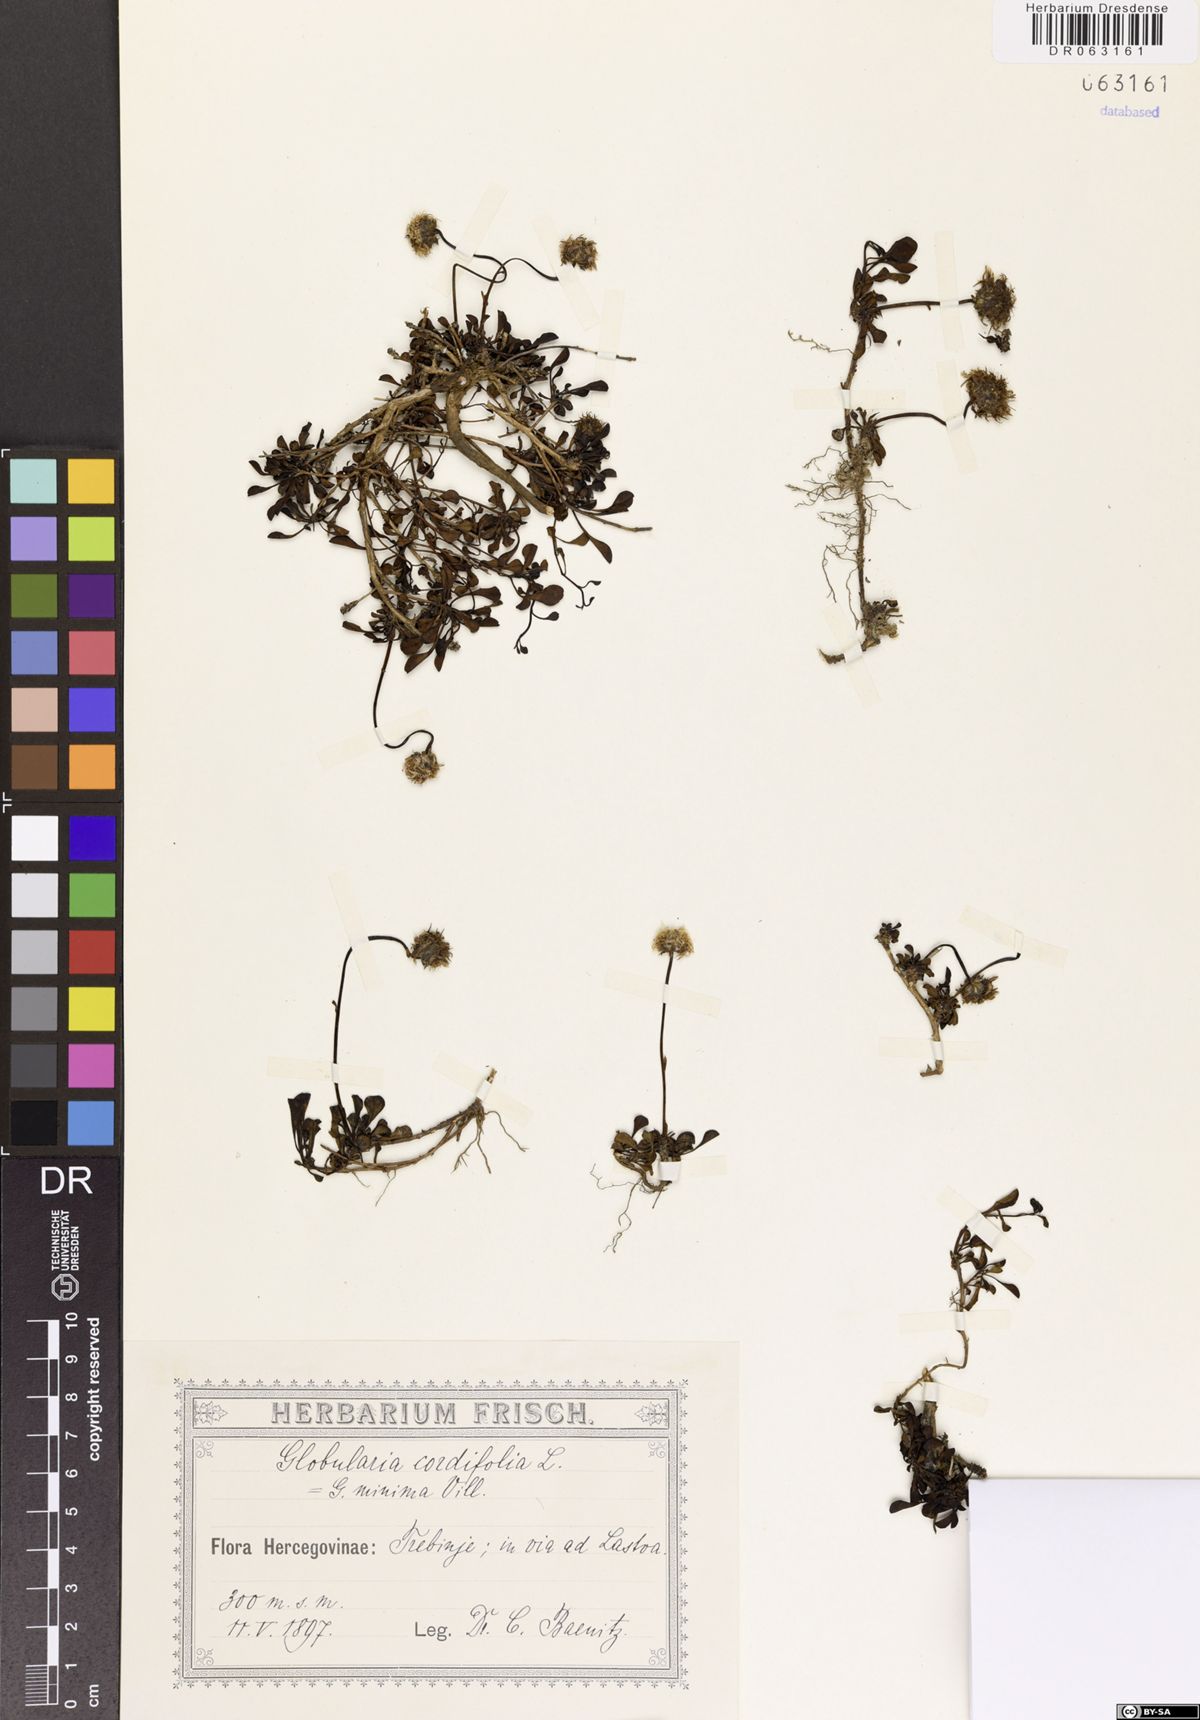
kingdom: Plantae
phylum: Tracheophyta
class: Magnoliopsida
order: Lamiales
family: Plantaginaceae
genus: Globularia
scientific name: Globularia cordifolia
